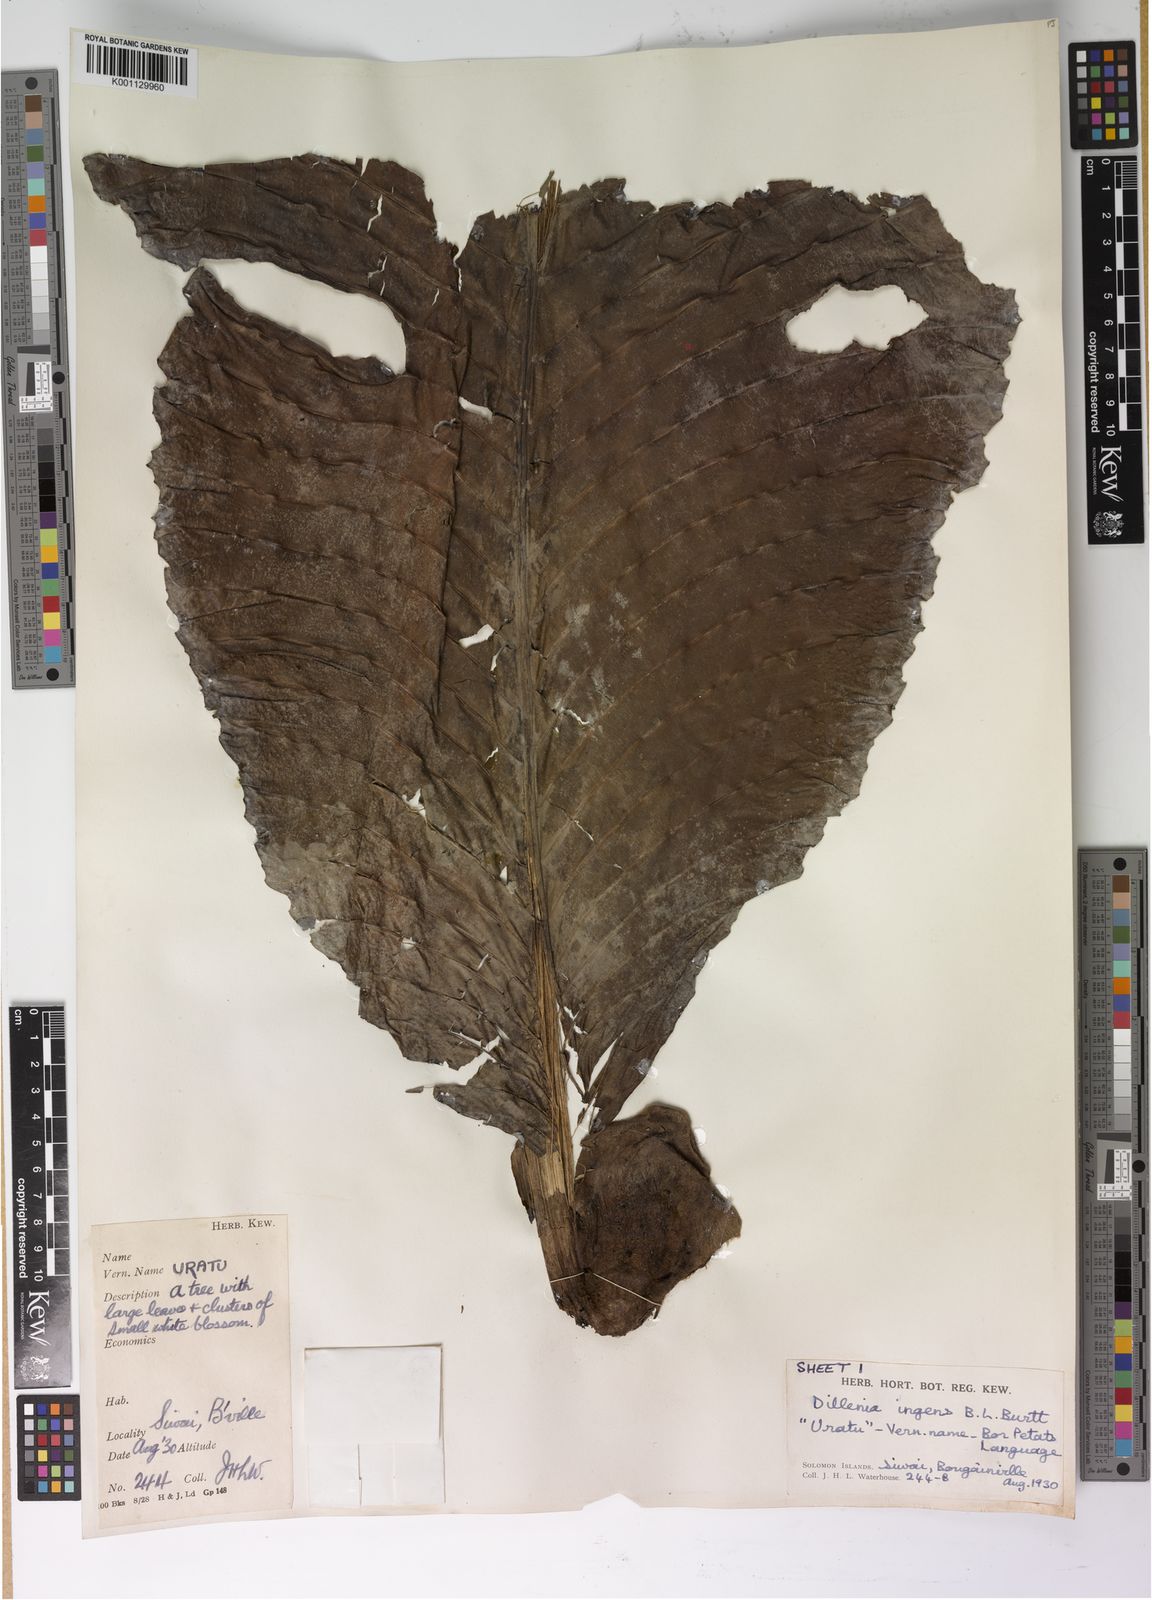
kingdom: Plantae
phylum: Tracheophyta
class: Magnoliopsida
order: Dilleniales
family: Dilleniaceae
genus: Dillenia
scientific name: Dillenia ingens
